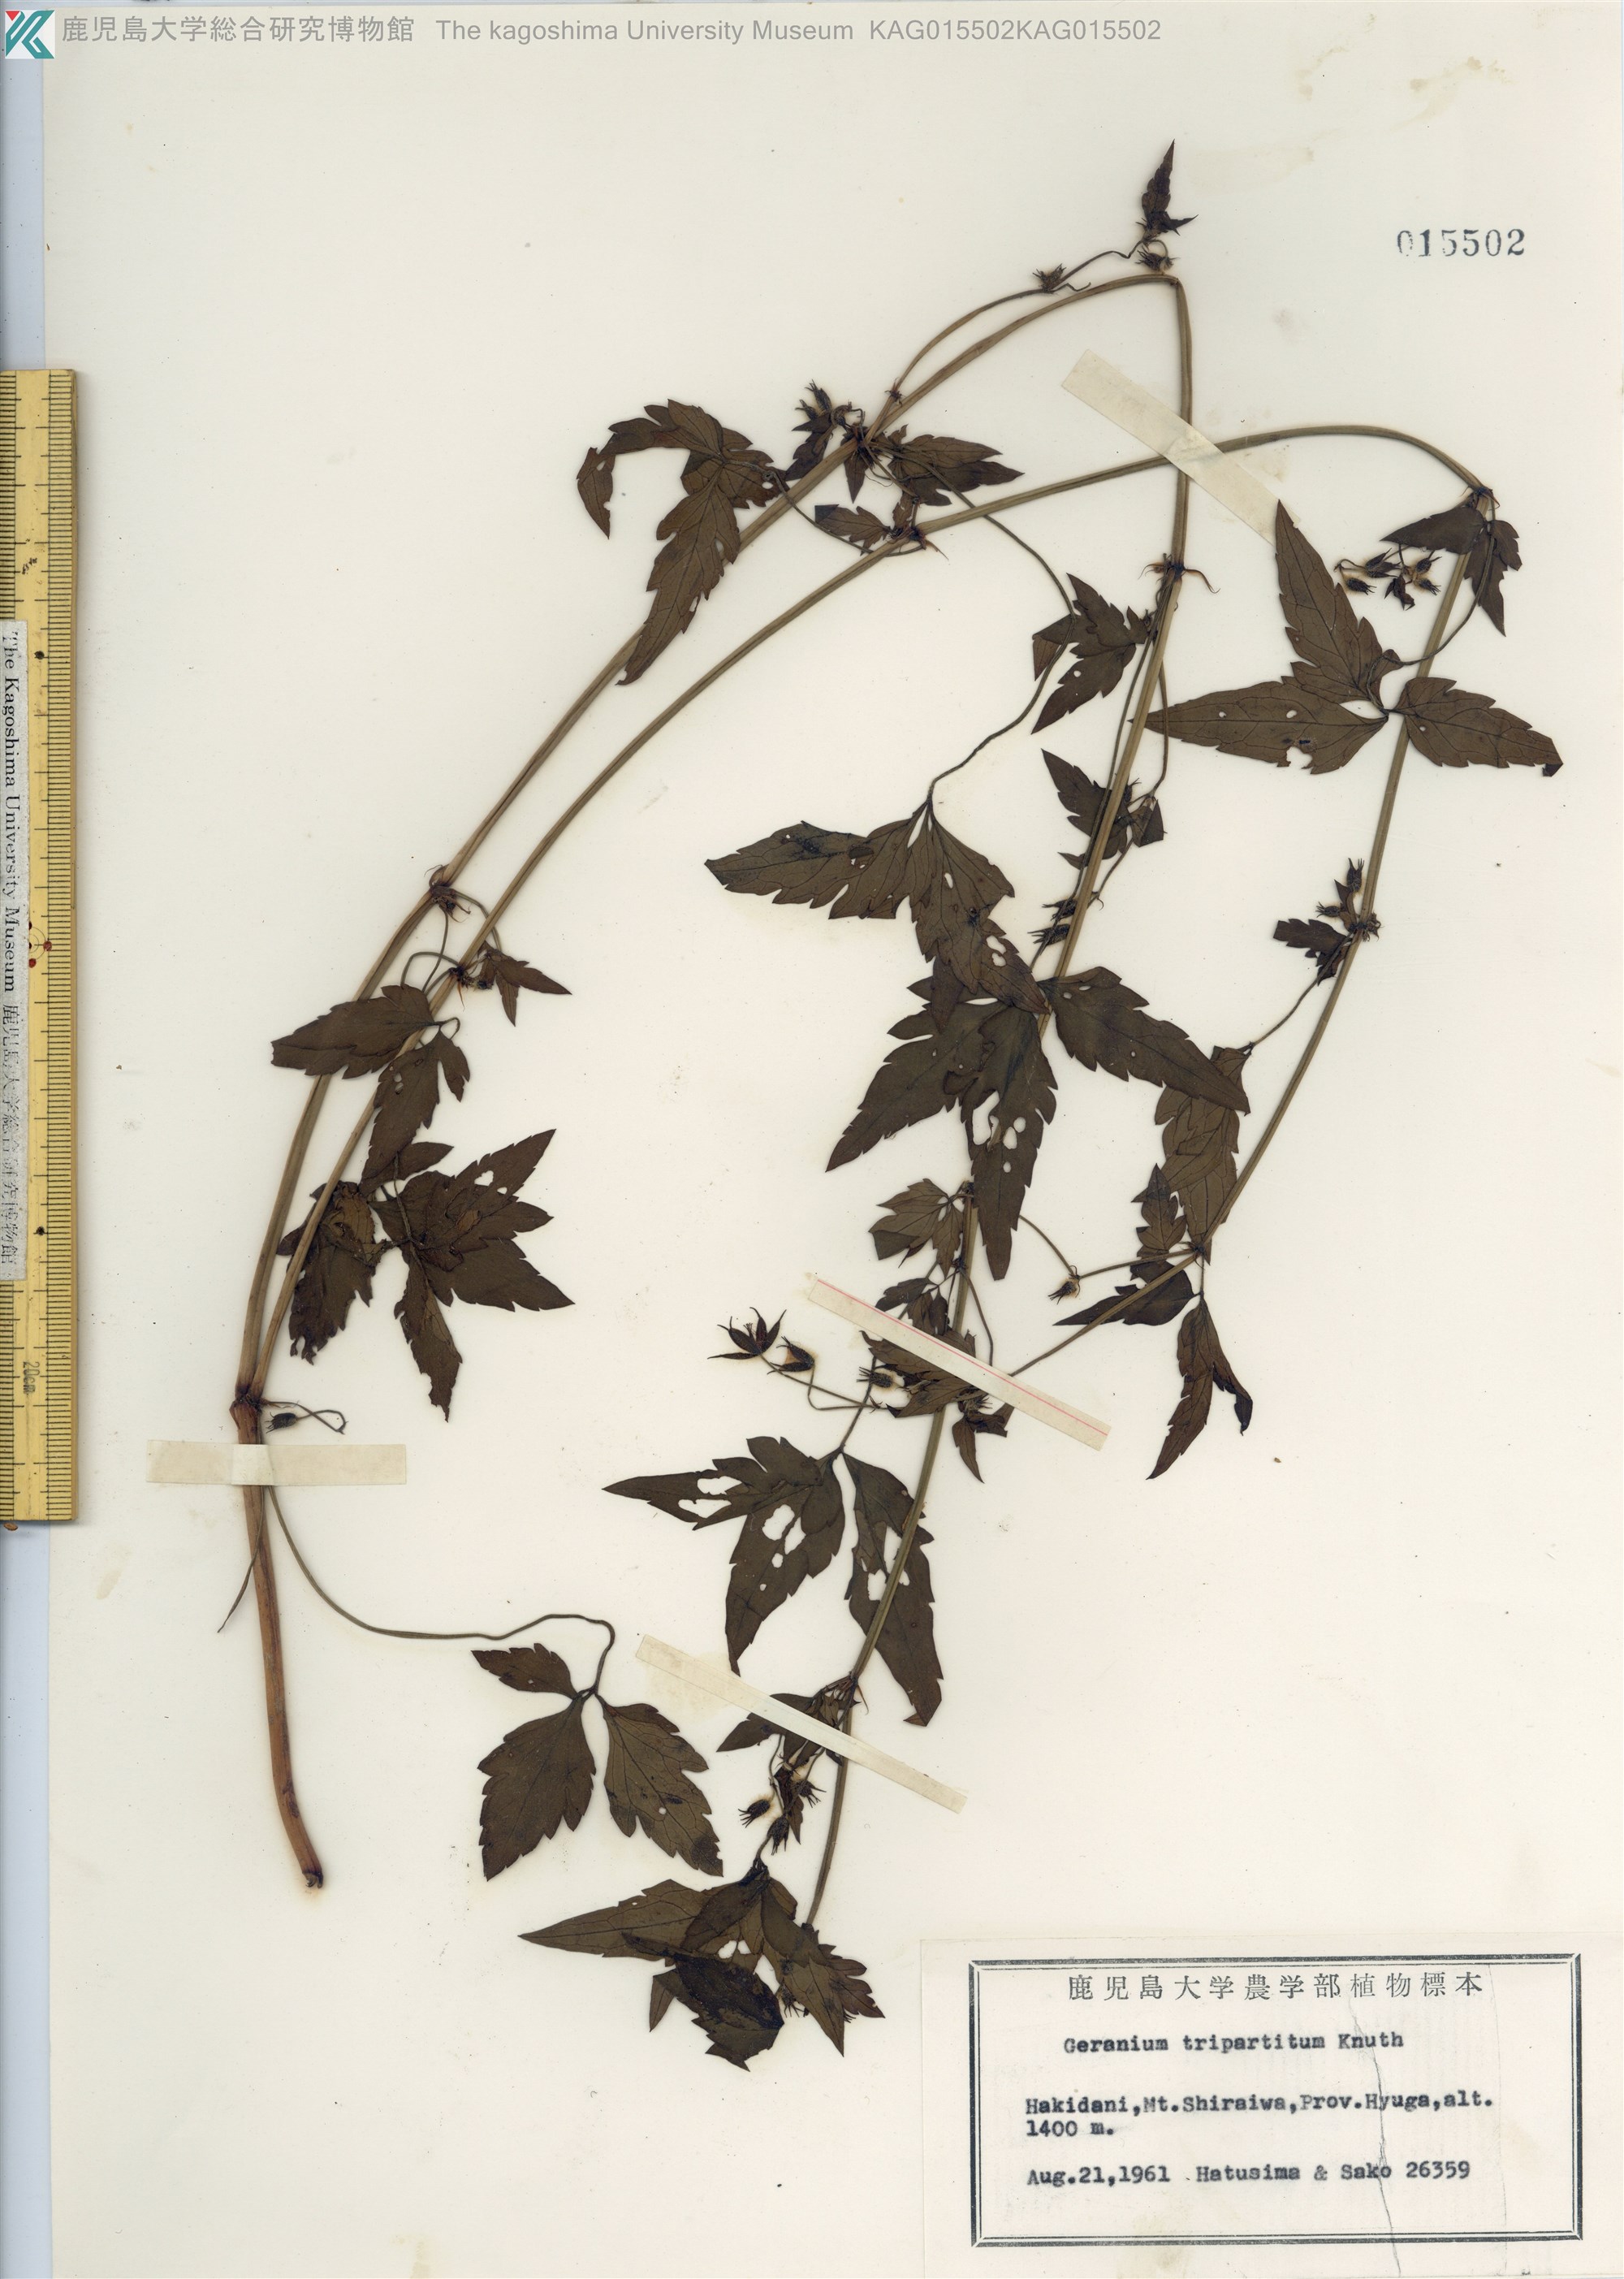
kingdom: Plantae
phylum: Tracheophyta
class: Magnoliopsida
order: Geraniales
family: Geraniaceae
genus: Geranium
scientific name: Geranium tripartitum
